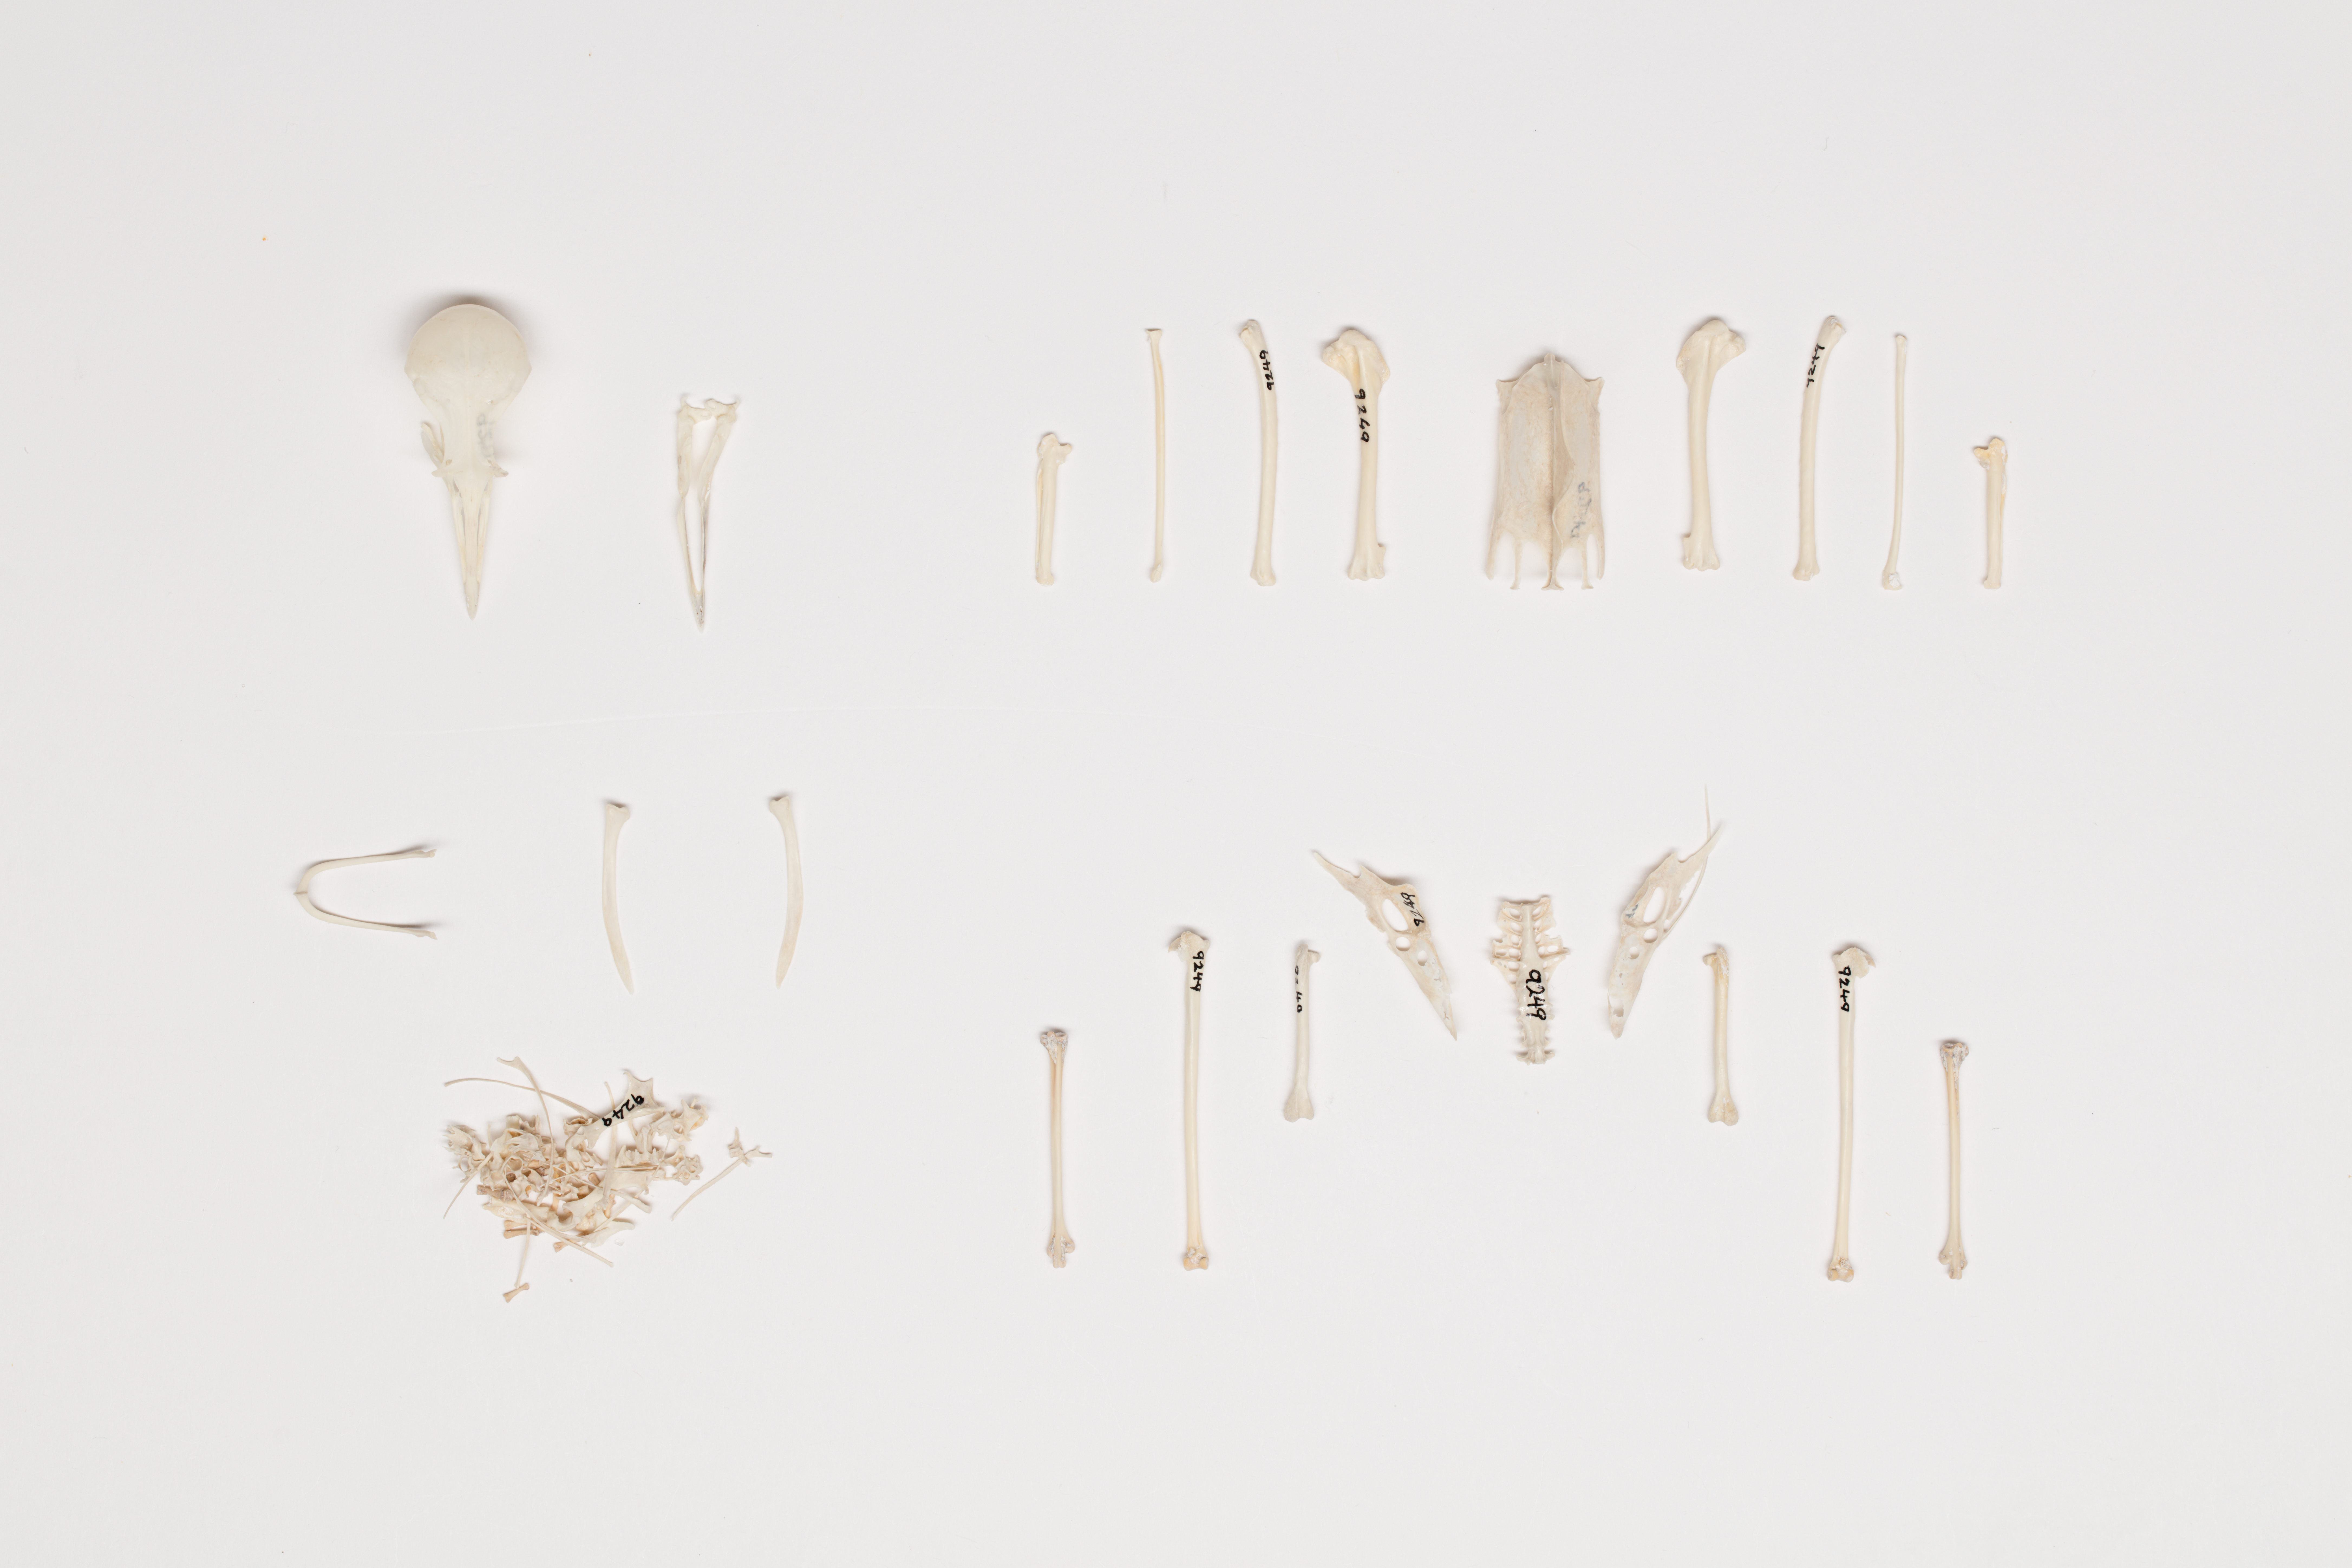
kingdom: Animalia
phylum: Chordata
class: Aves
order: Charadriiformes
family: Charadriidae
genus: Charadrius
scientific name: Charadrius bicinctus
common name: Double-banded plover
